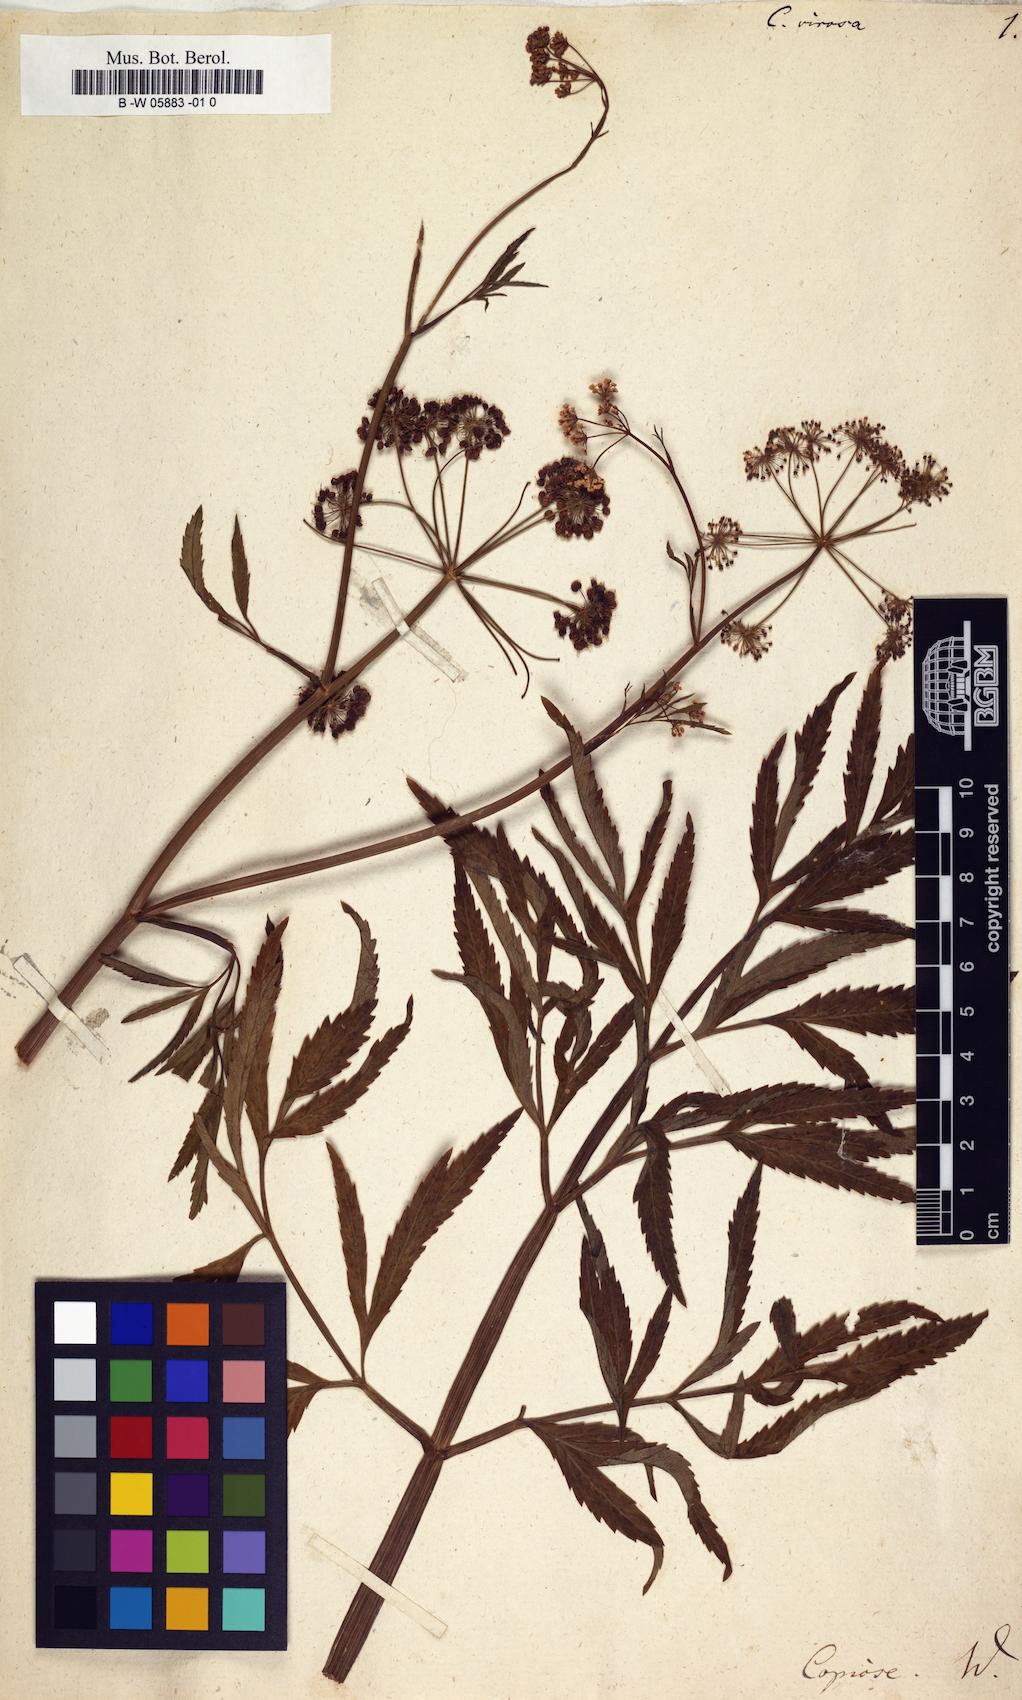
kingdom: Plantae
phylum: Tracheophyta
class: Magnoliopsida
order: Apiales
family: Apiaceae
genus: Cicuta
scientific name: Cicuta virosa
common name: Cowbane
